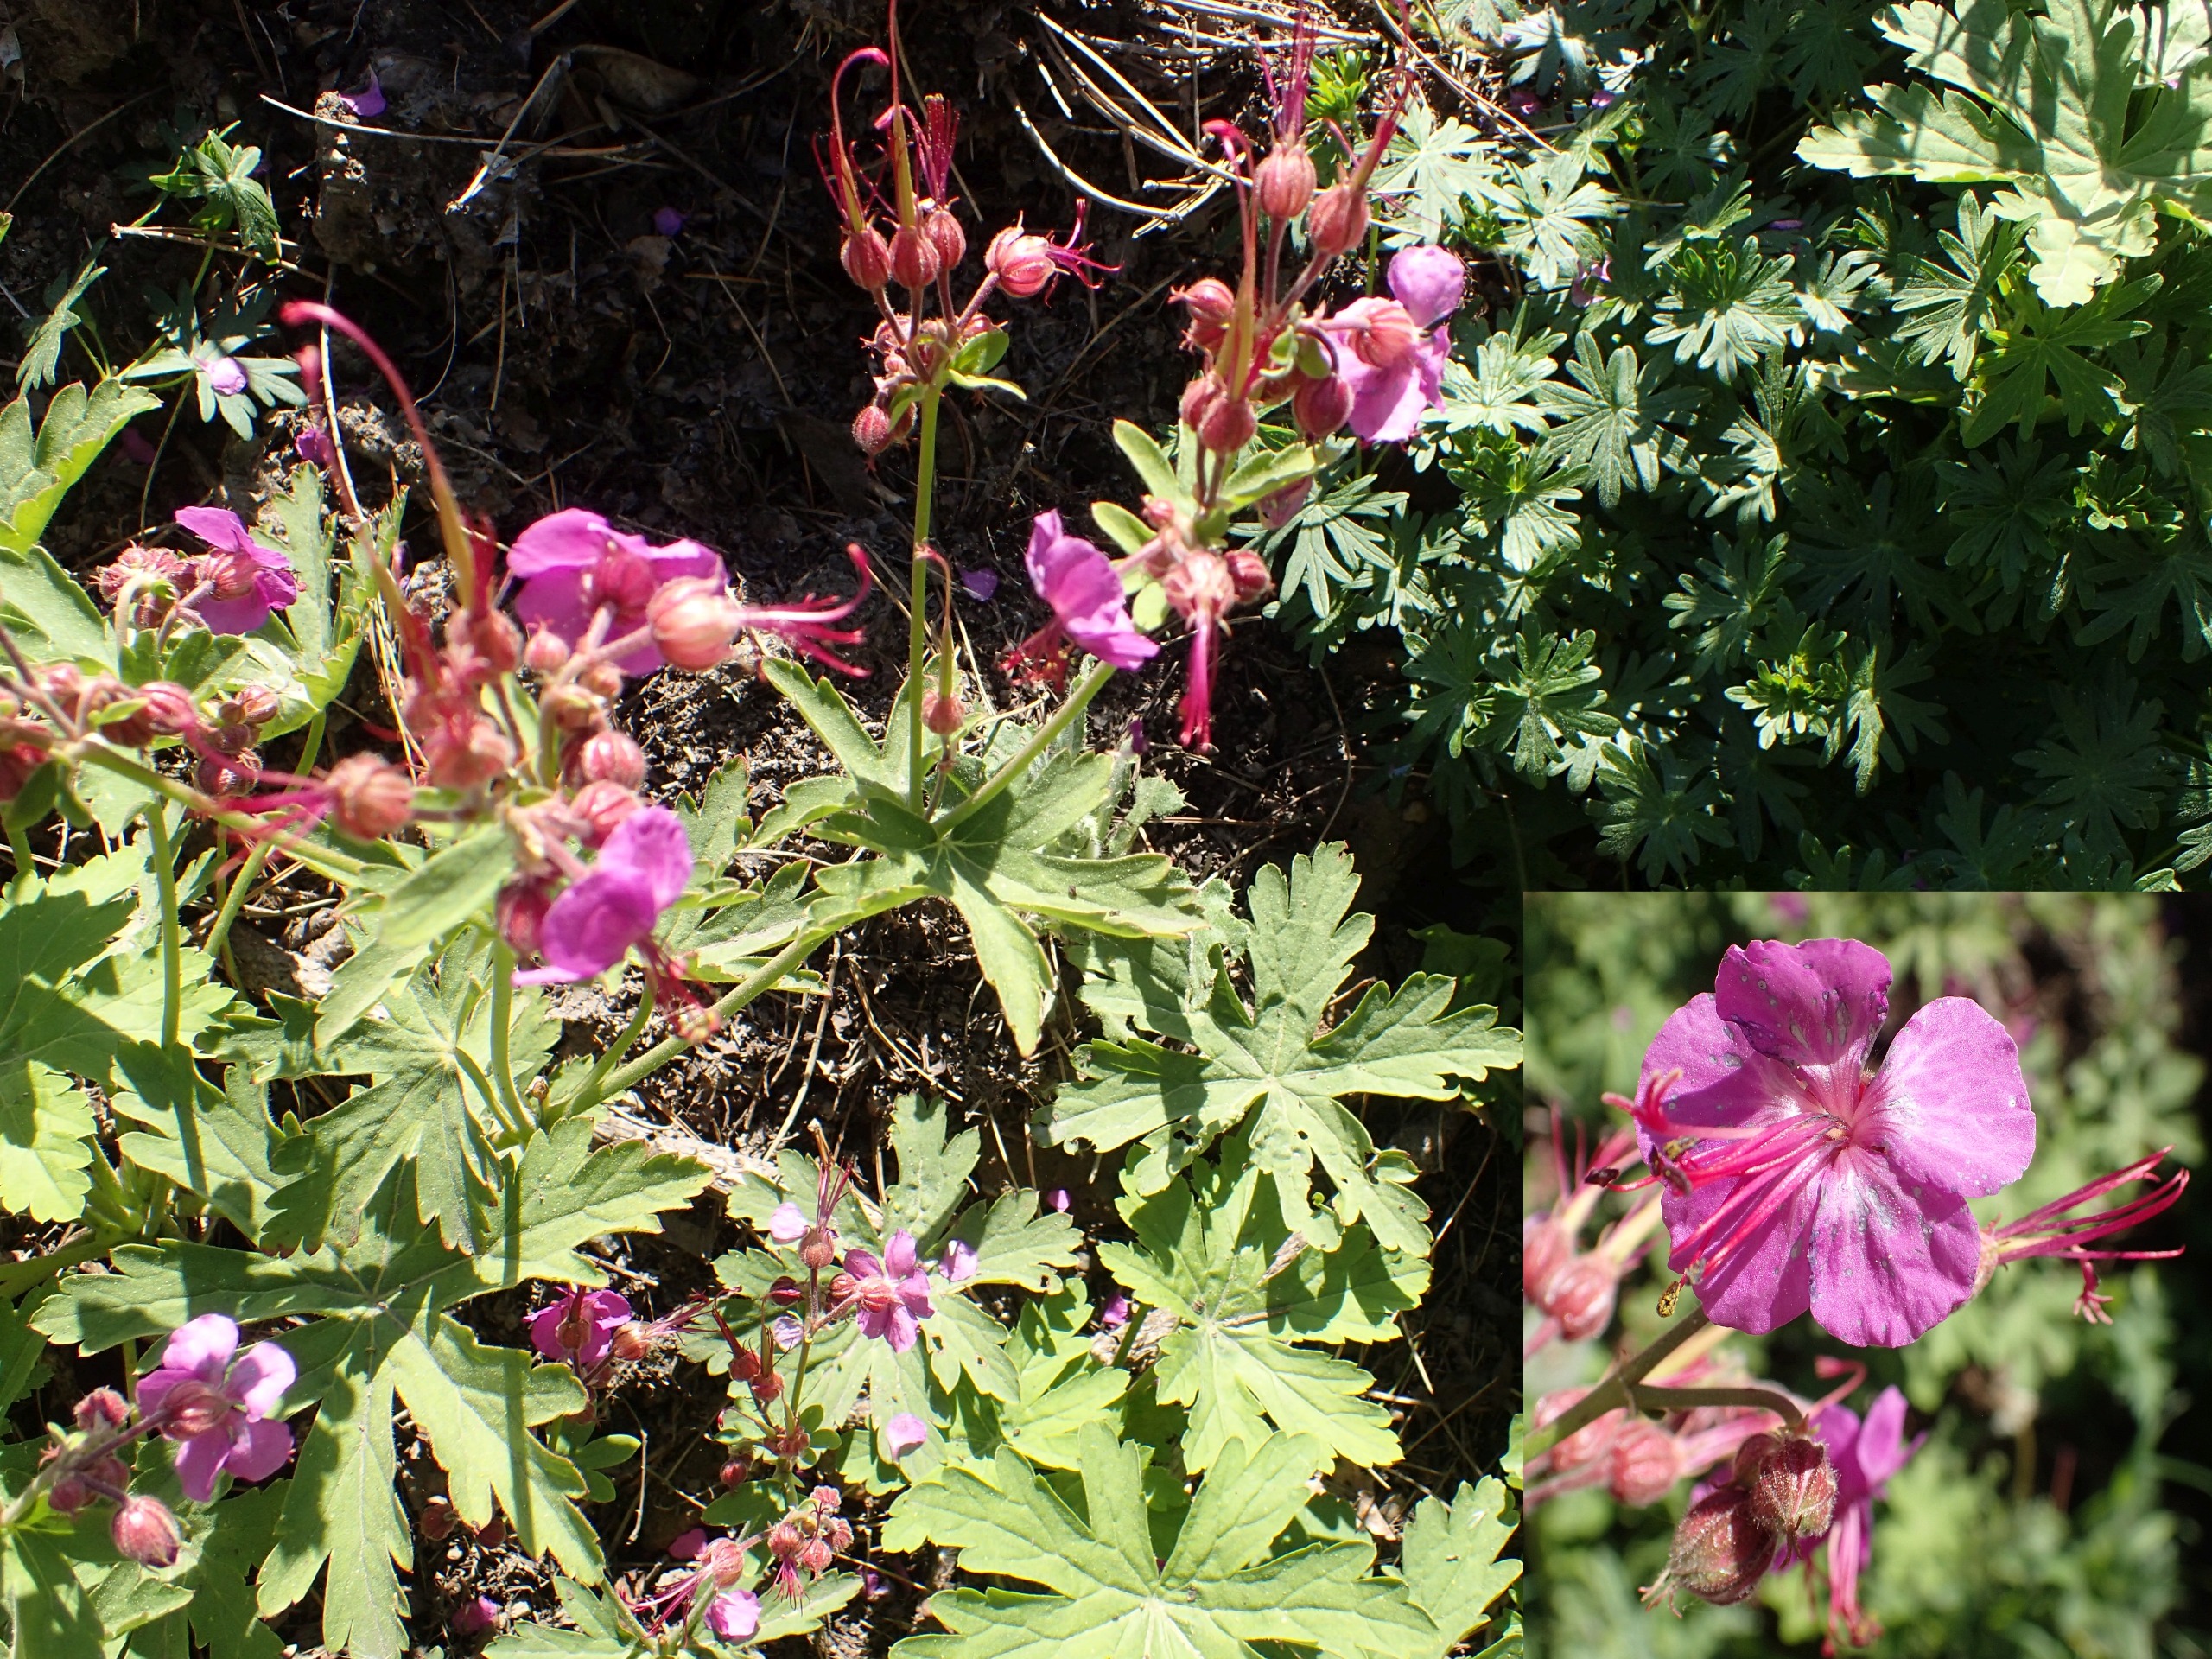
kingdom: Plantae
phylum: Tracheophyta
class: Magnoliopsida
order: Geraniales
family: Geraniaceae
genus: Geranium
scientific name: Geranium macrorrhizum
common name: Storrodet storkenæb
